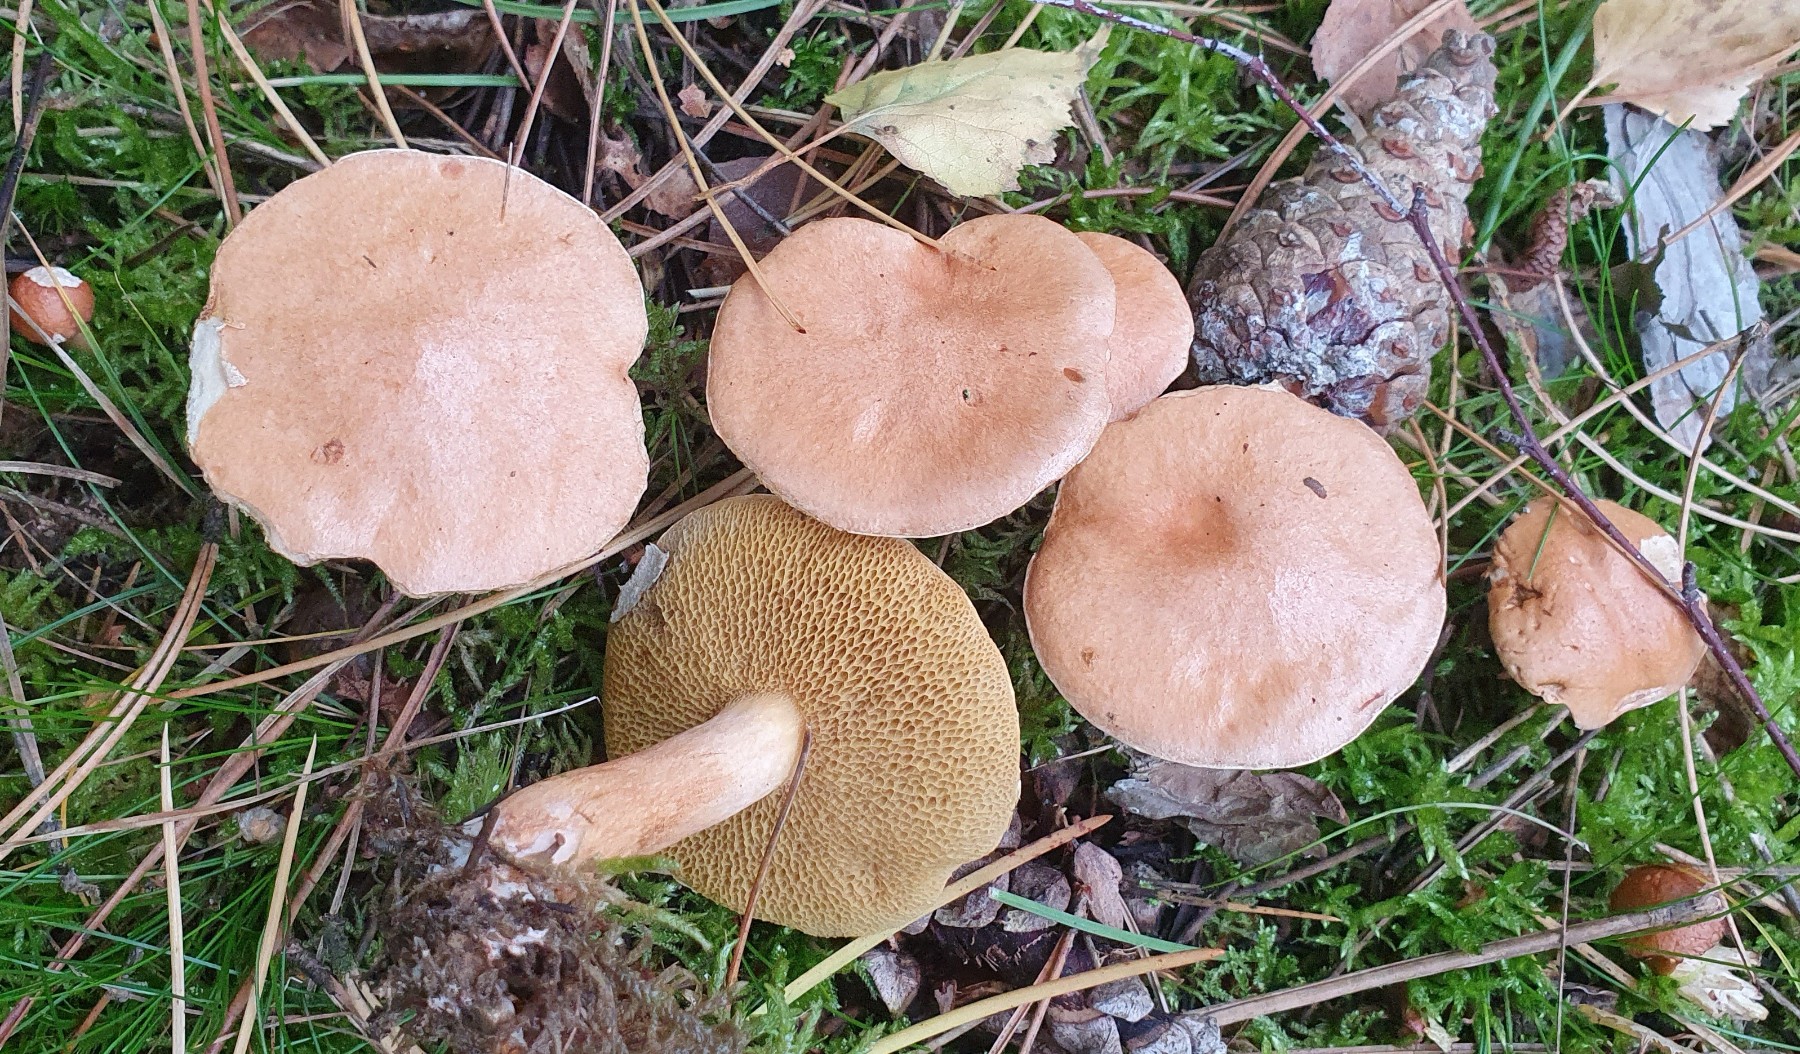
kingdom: Fungi
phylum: Basidiomycota
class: Agaricomycetes
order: Boletales
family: Suillaceae
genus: Suillus
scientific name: Suillus bovinus
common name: grovporet slimrørhat
